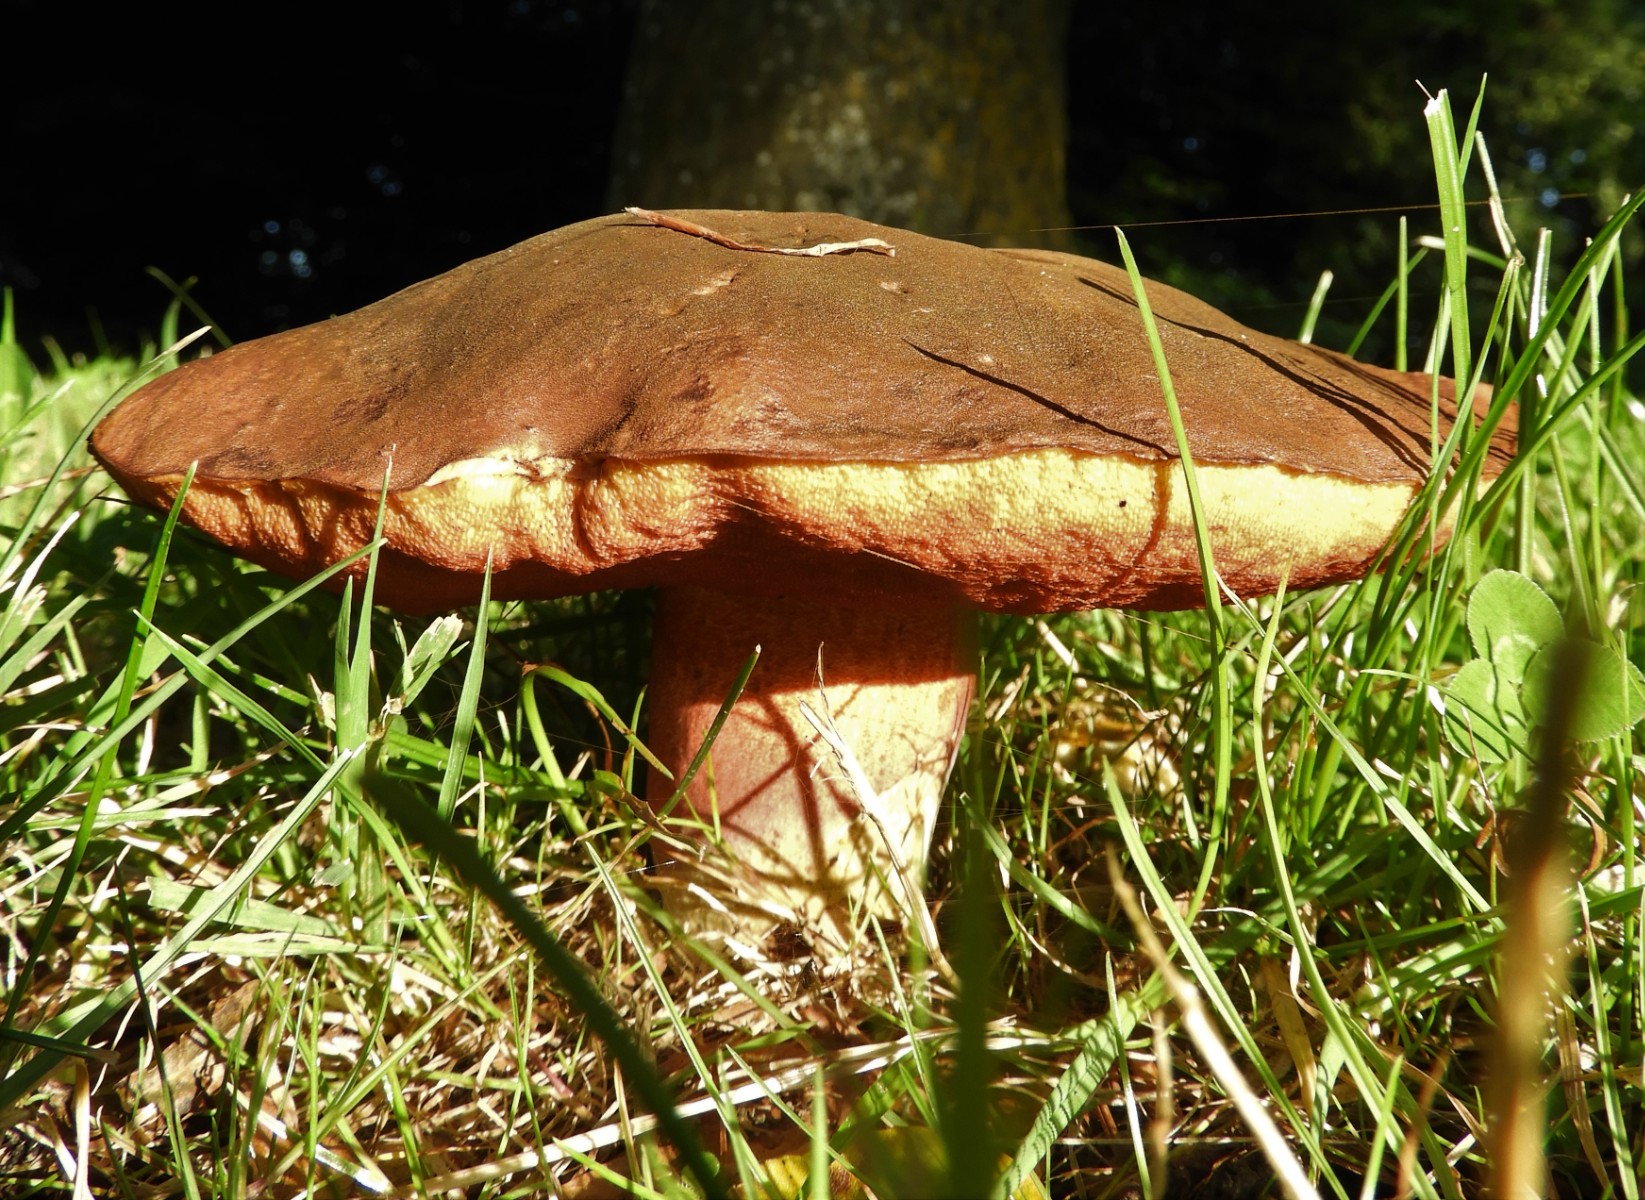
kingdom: Fungi
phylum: Basidiomycota
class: Agaricomycetes
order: Boletales
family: Boletaceae
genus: Neoboletus
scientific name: Neoboletus erythropus
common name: punktstokket indigorørhat
